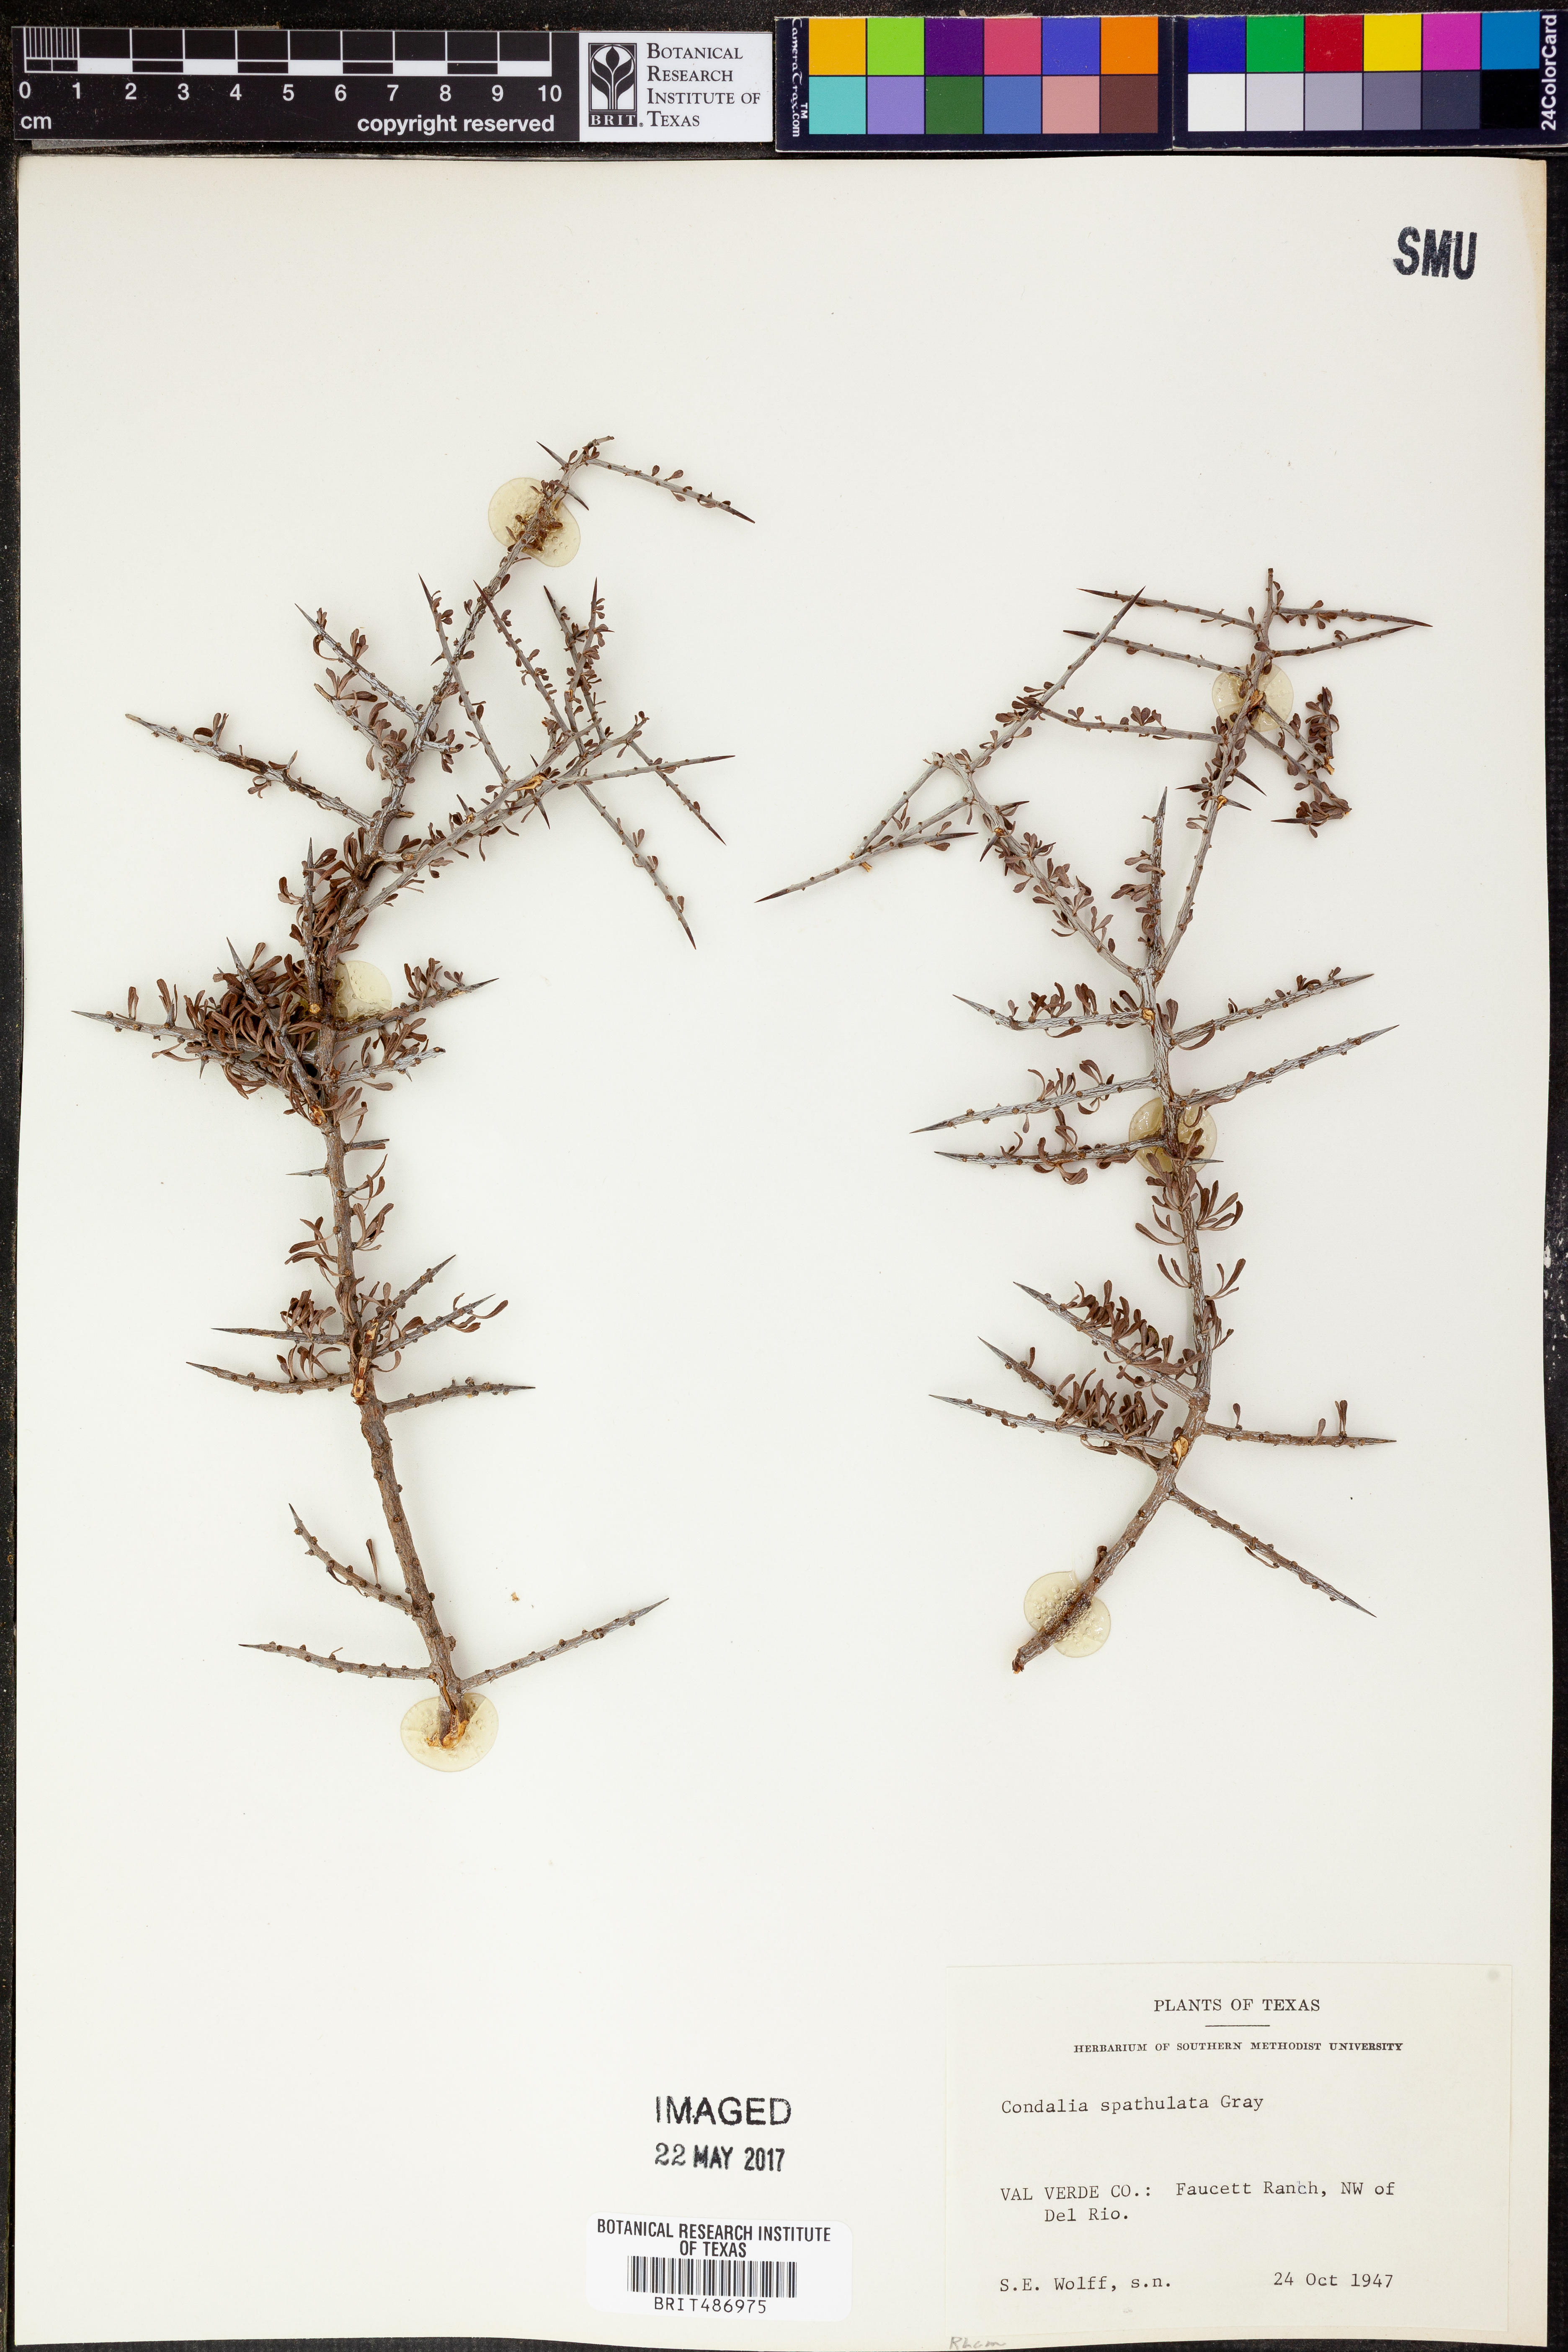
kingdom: Plantae
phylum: Tracheophyta
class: Magnoliopsida
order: Rosales
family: Rhamnaceae
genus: Condalia
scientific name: Condalia spathulata
